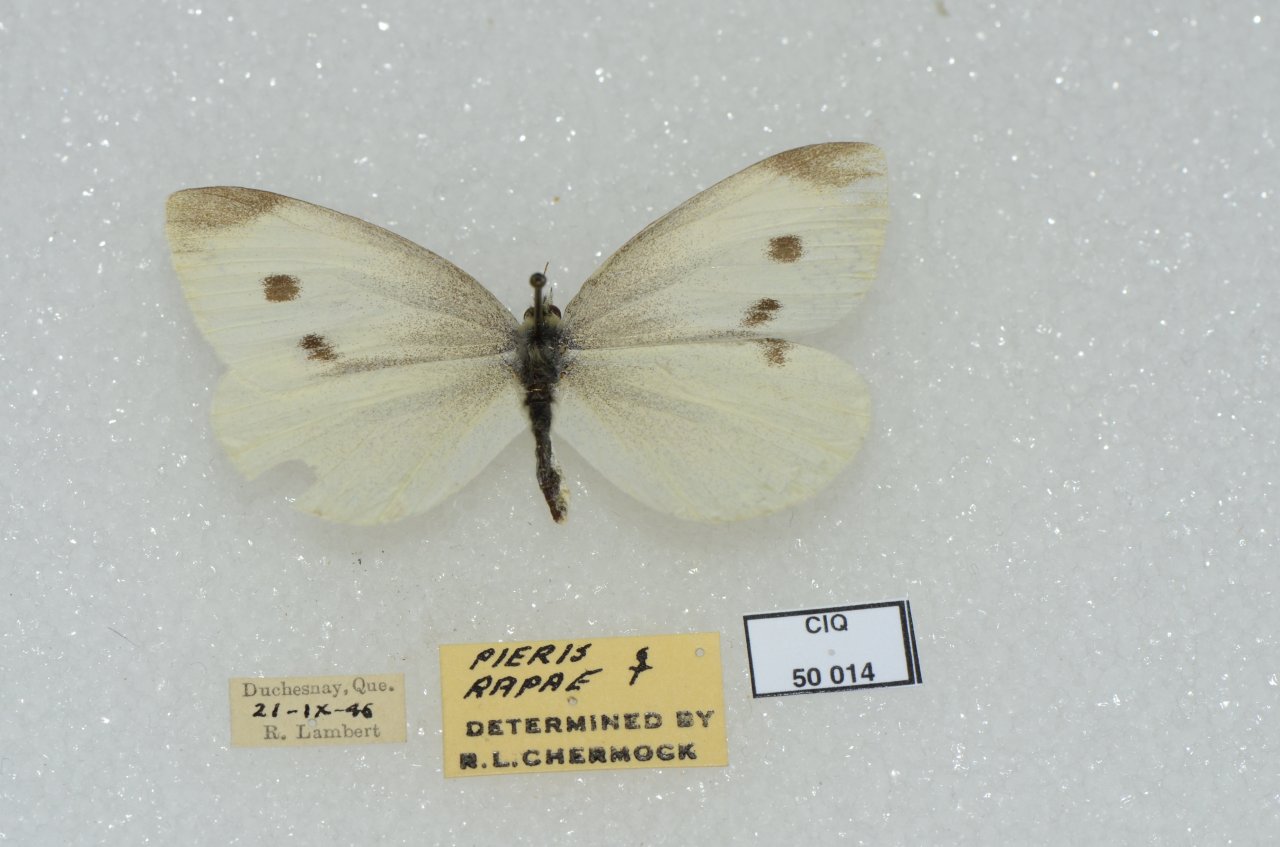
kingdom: Animalia
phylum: Arthropoda
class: Insecta
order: Lepidoptera
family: Pieridae
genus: Pieris
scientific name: Pieris rapae
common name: Cabbage White
